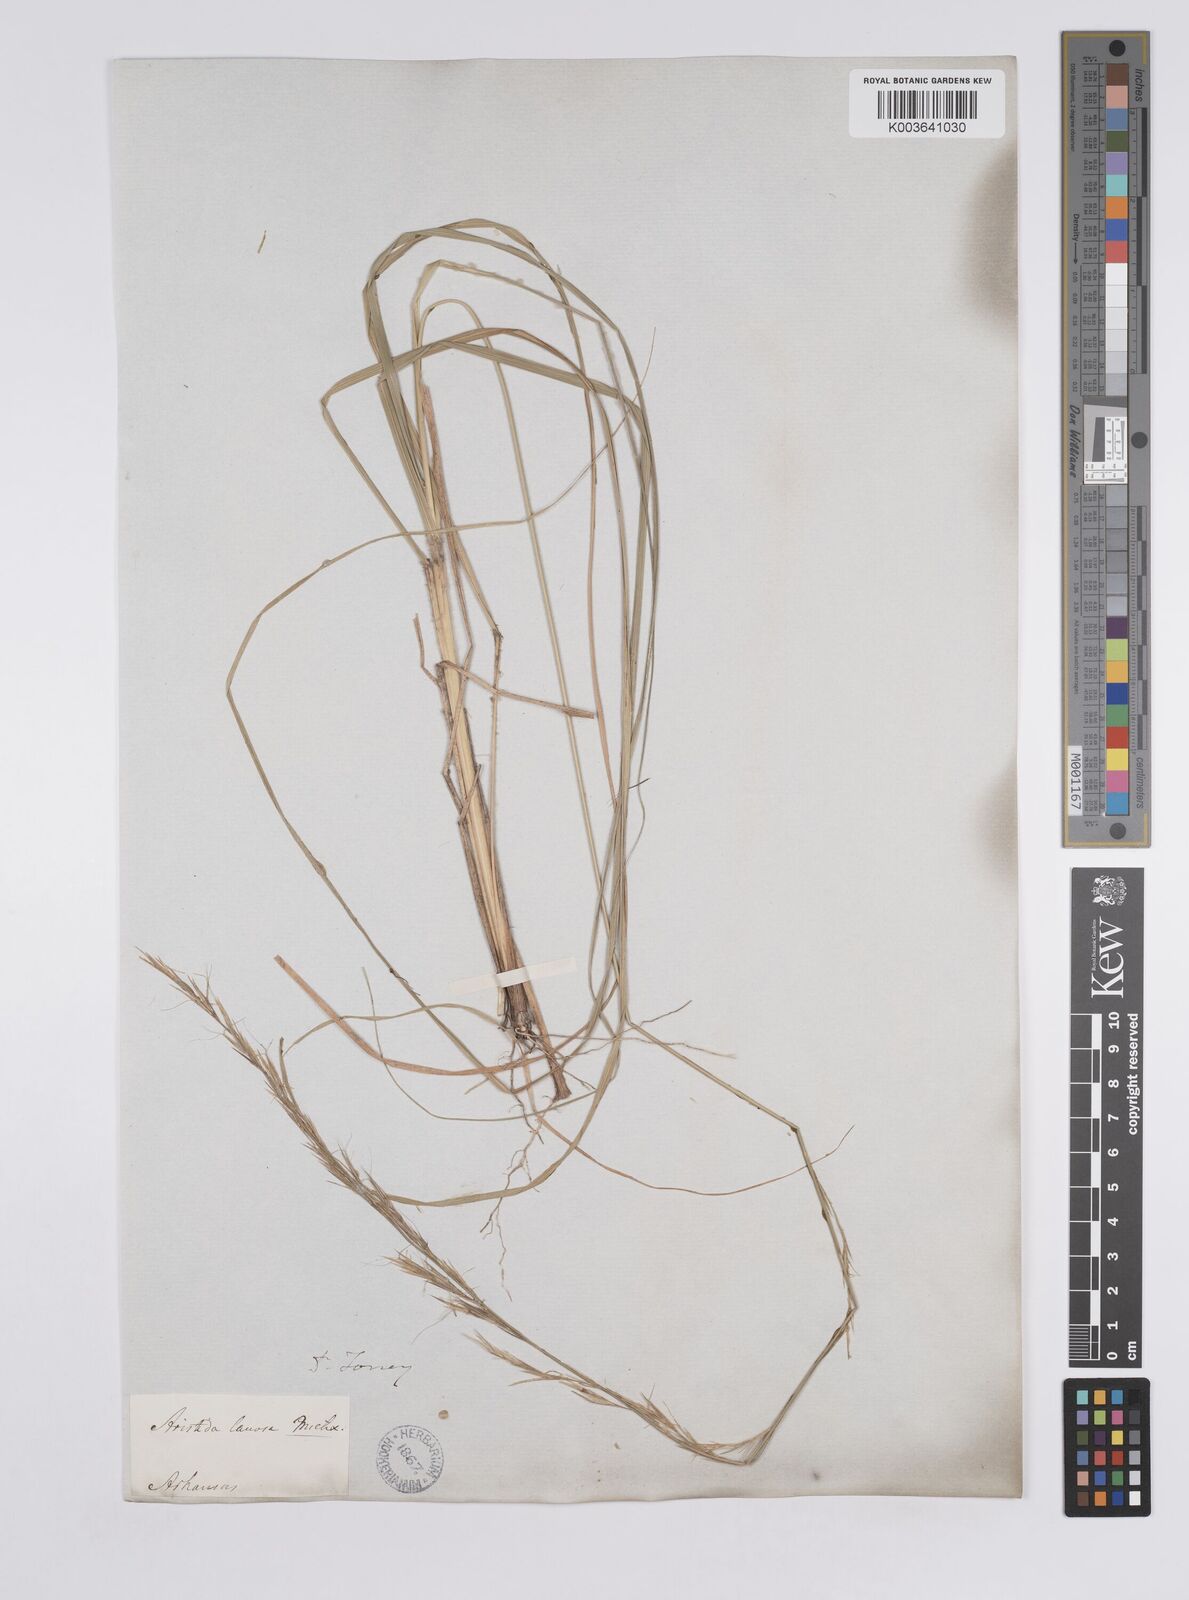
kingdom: Plantae
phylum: Tracheophyta
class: Liliopsida
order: Poales
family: Poaceae
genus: Aristida
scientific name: Aristida lanosa
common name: Woolly three-awn
